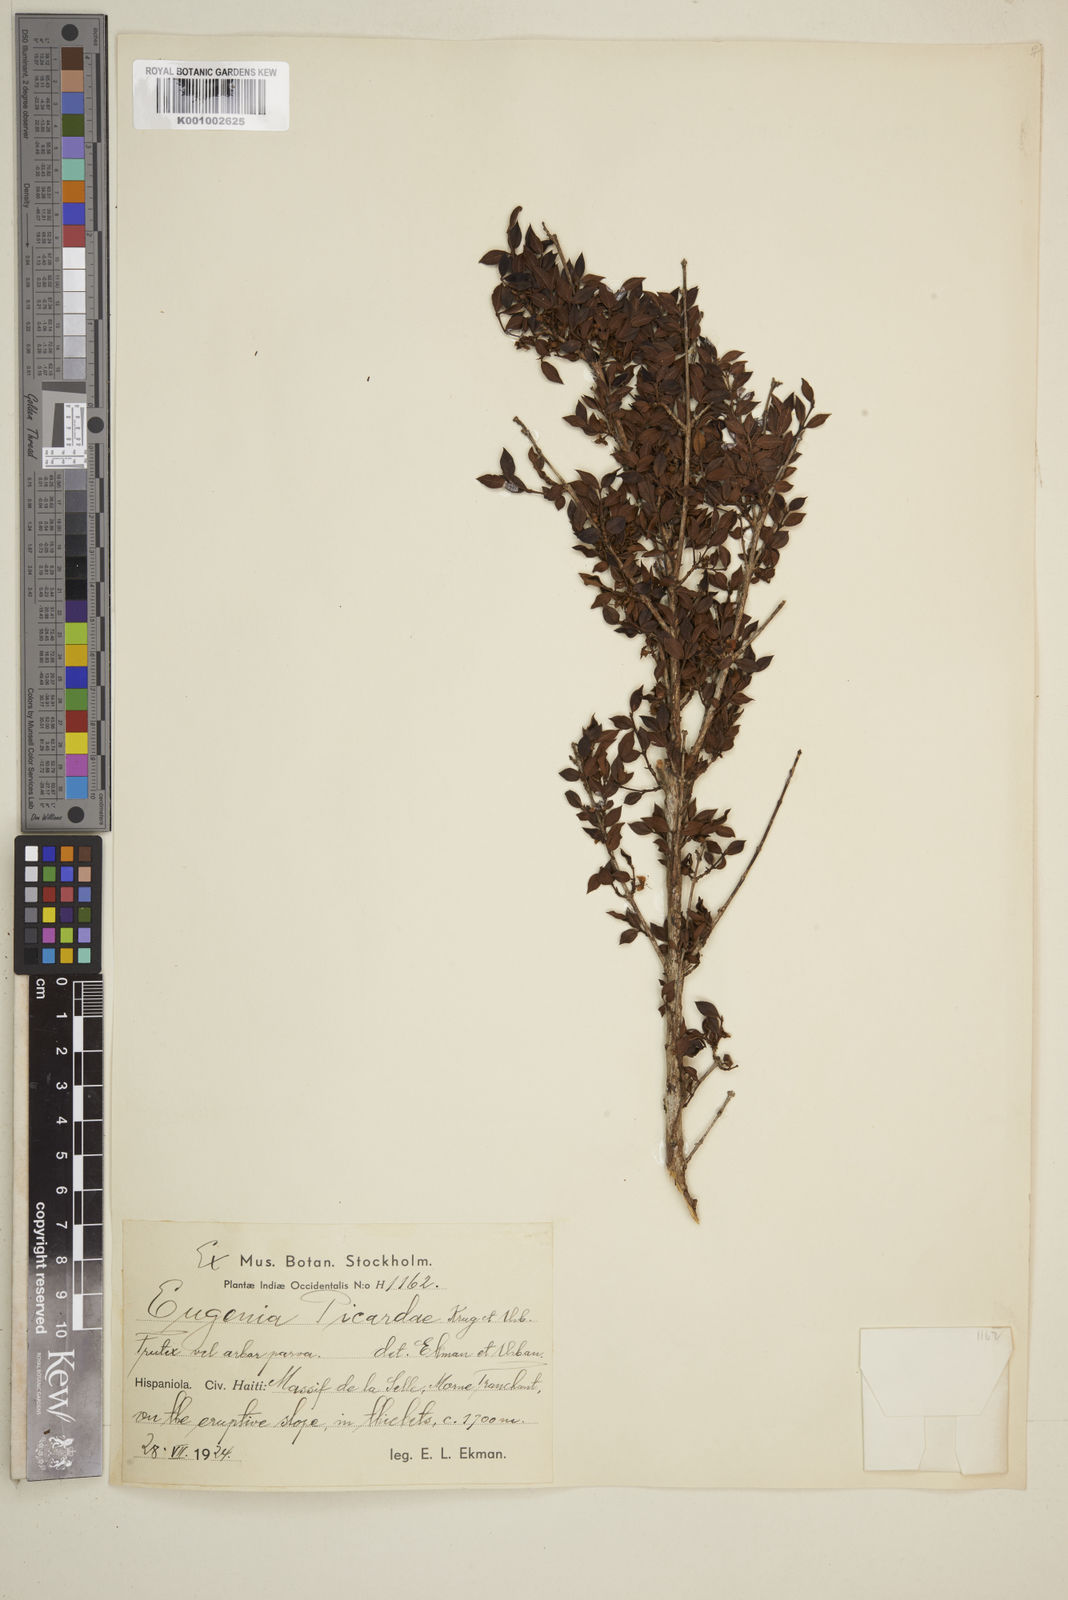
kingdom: Plantae
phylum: Tracheophyta
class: Magnoliopsida
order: Myrtales
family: Myrtaceae
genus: Eugenia
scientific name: Eugenia picardiae
